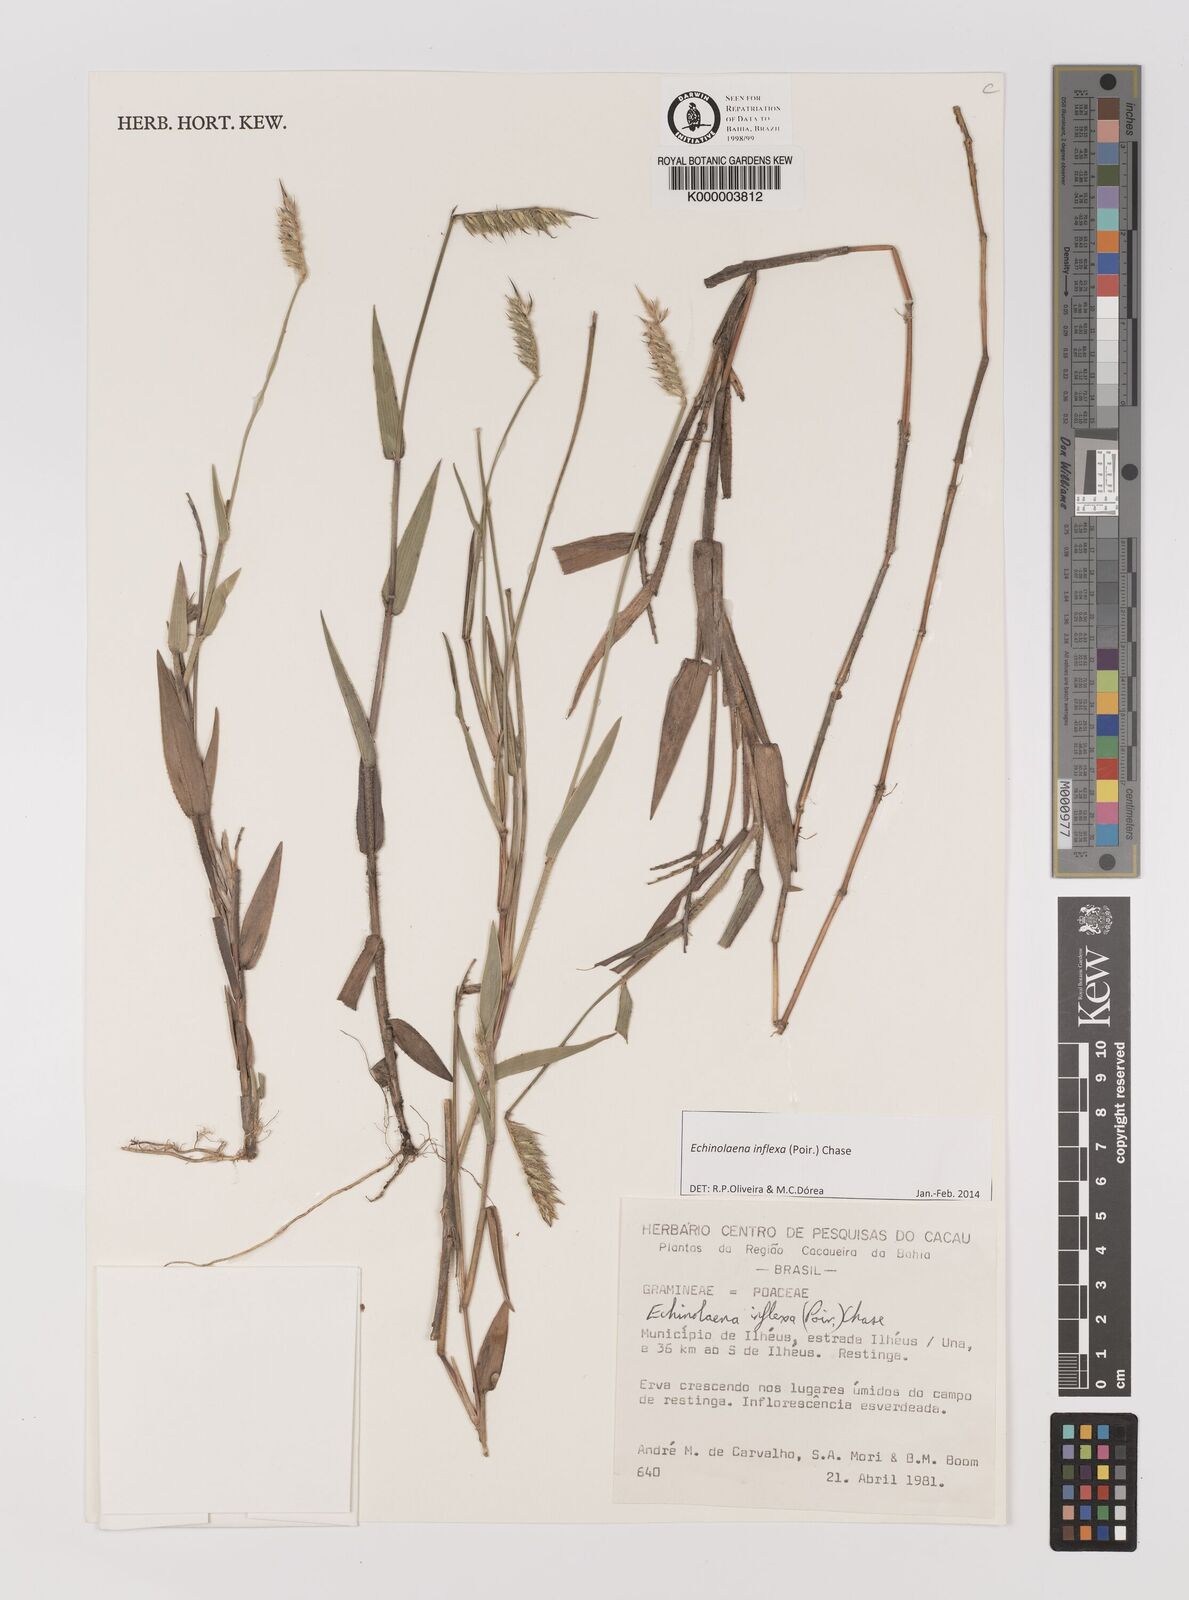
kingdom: Plantae
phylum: Tracheophyta
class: Liliopsida
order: Poales
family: Poaceae
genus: Echinolaena
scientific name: Echinolaena inflexa
